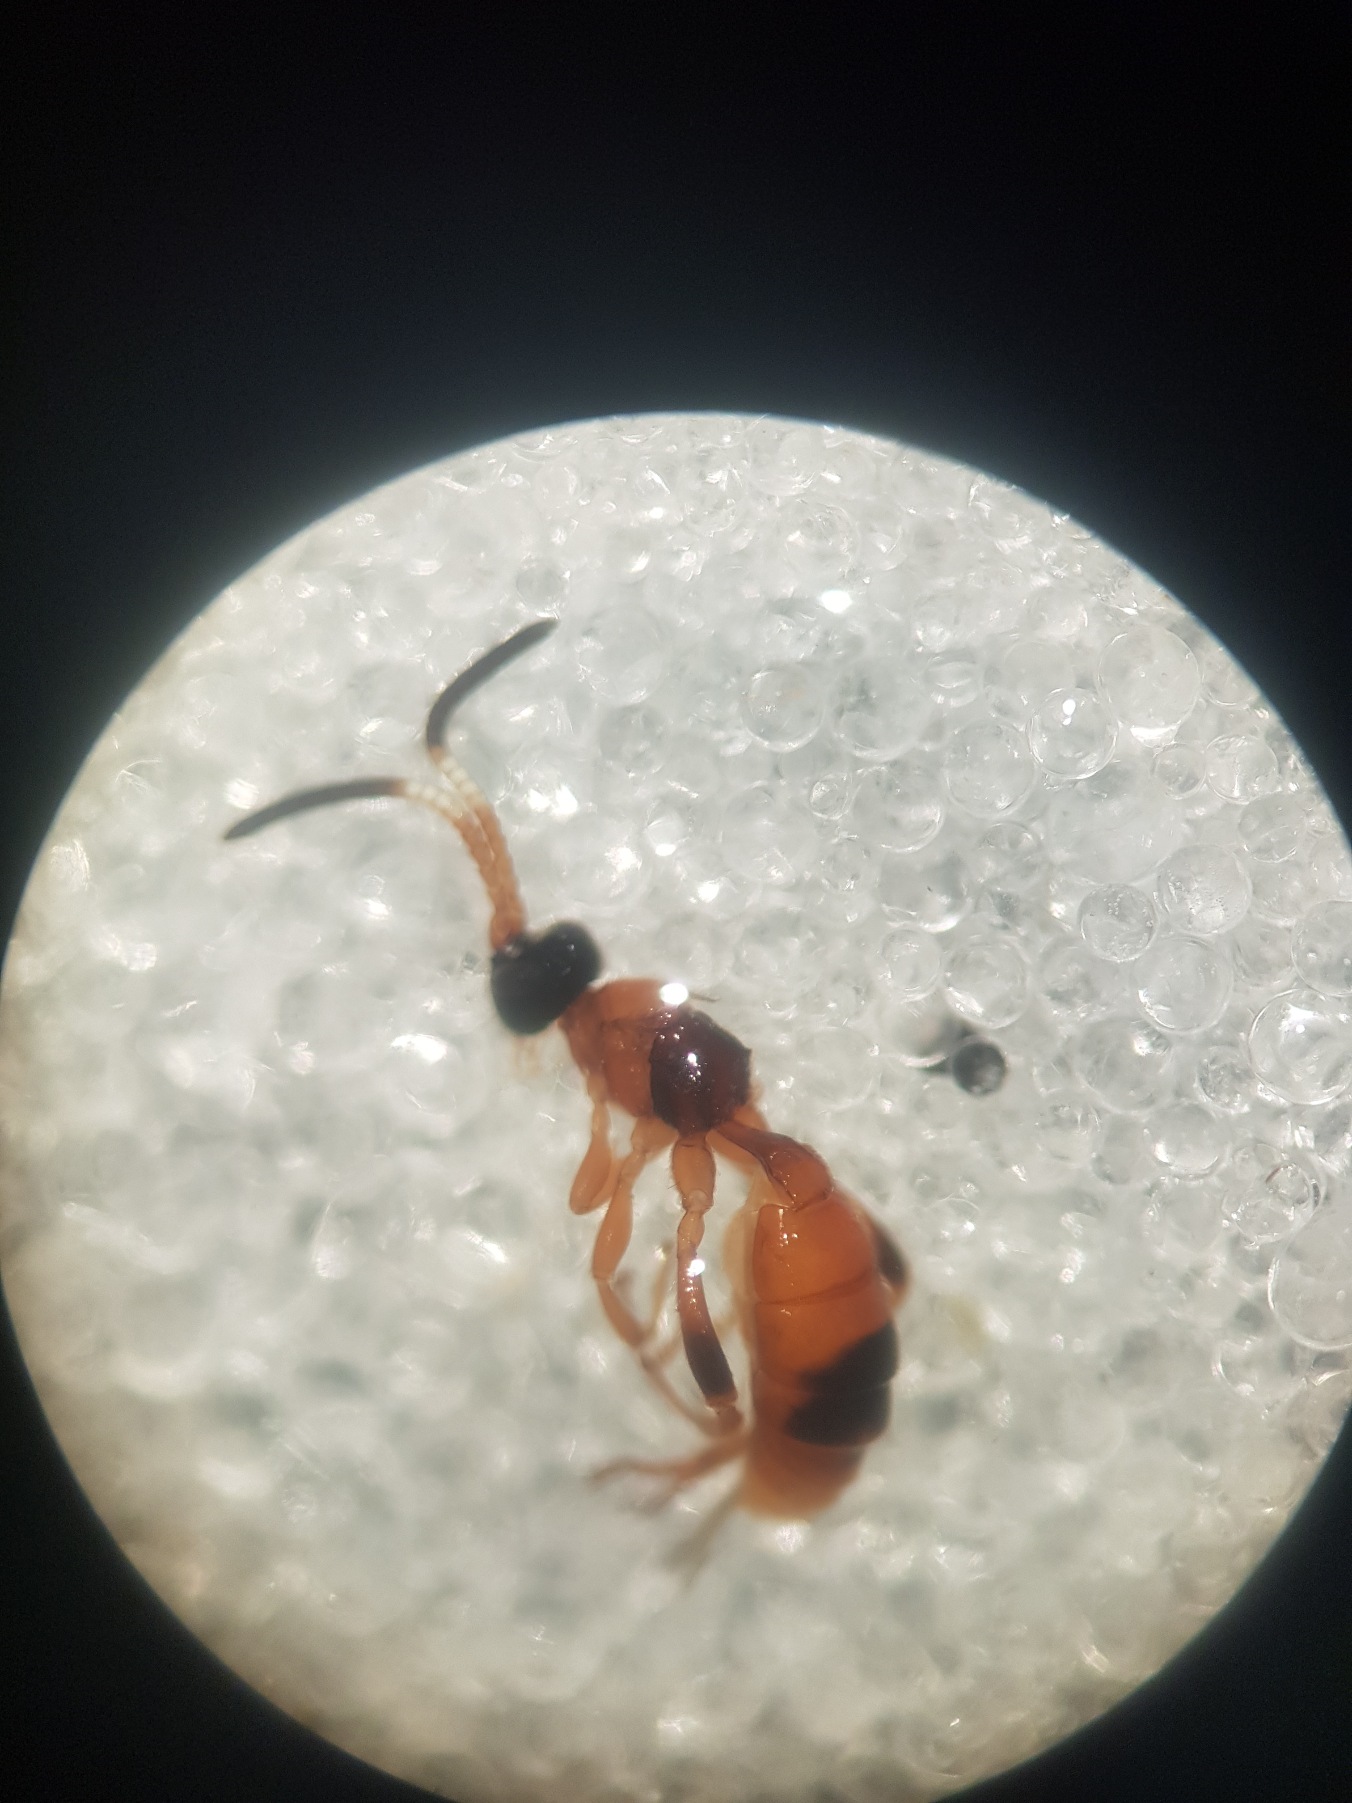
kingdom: Animalia
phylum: Arthropoda
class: Insecta
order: Hymenoptera
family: Ichneumonidae
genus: Aptesis
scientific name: Aptesis nigrocincta
